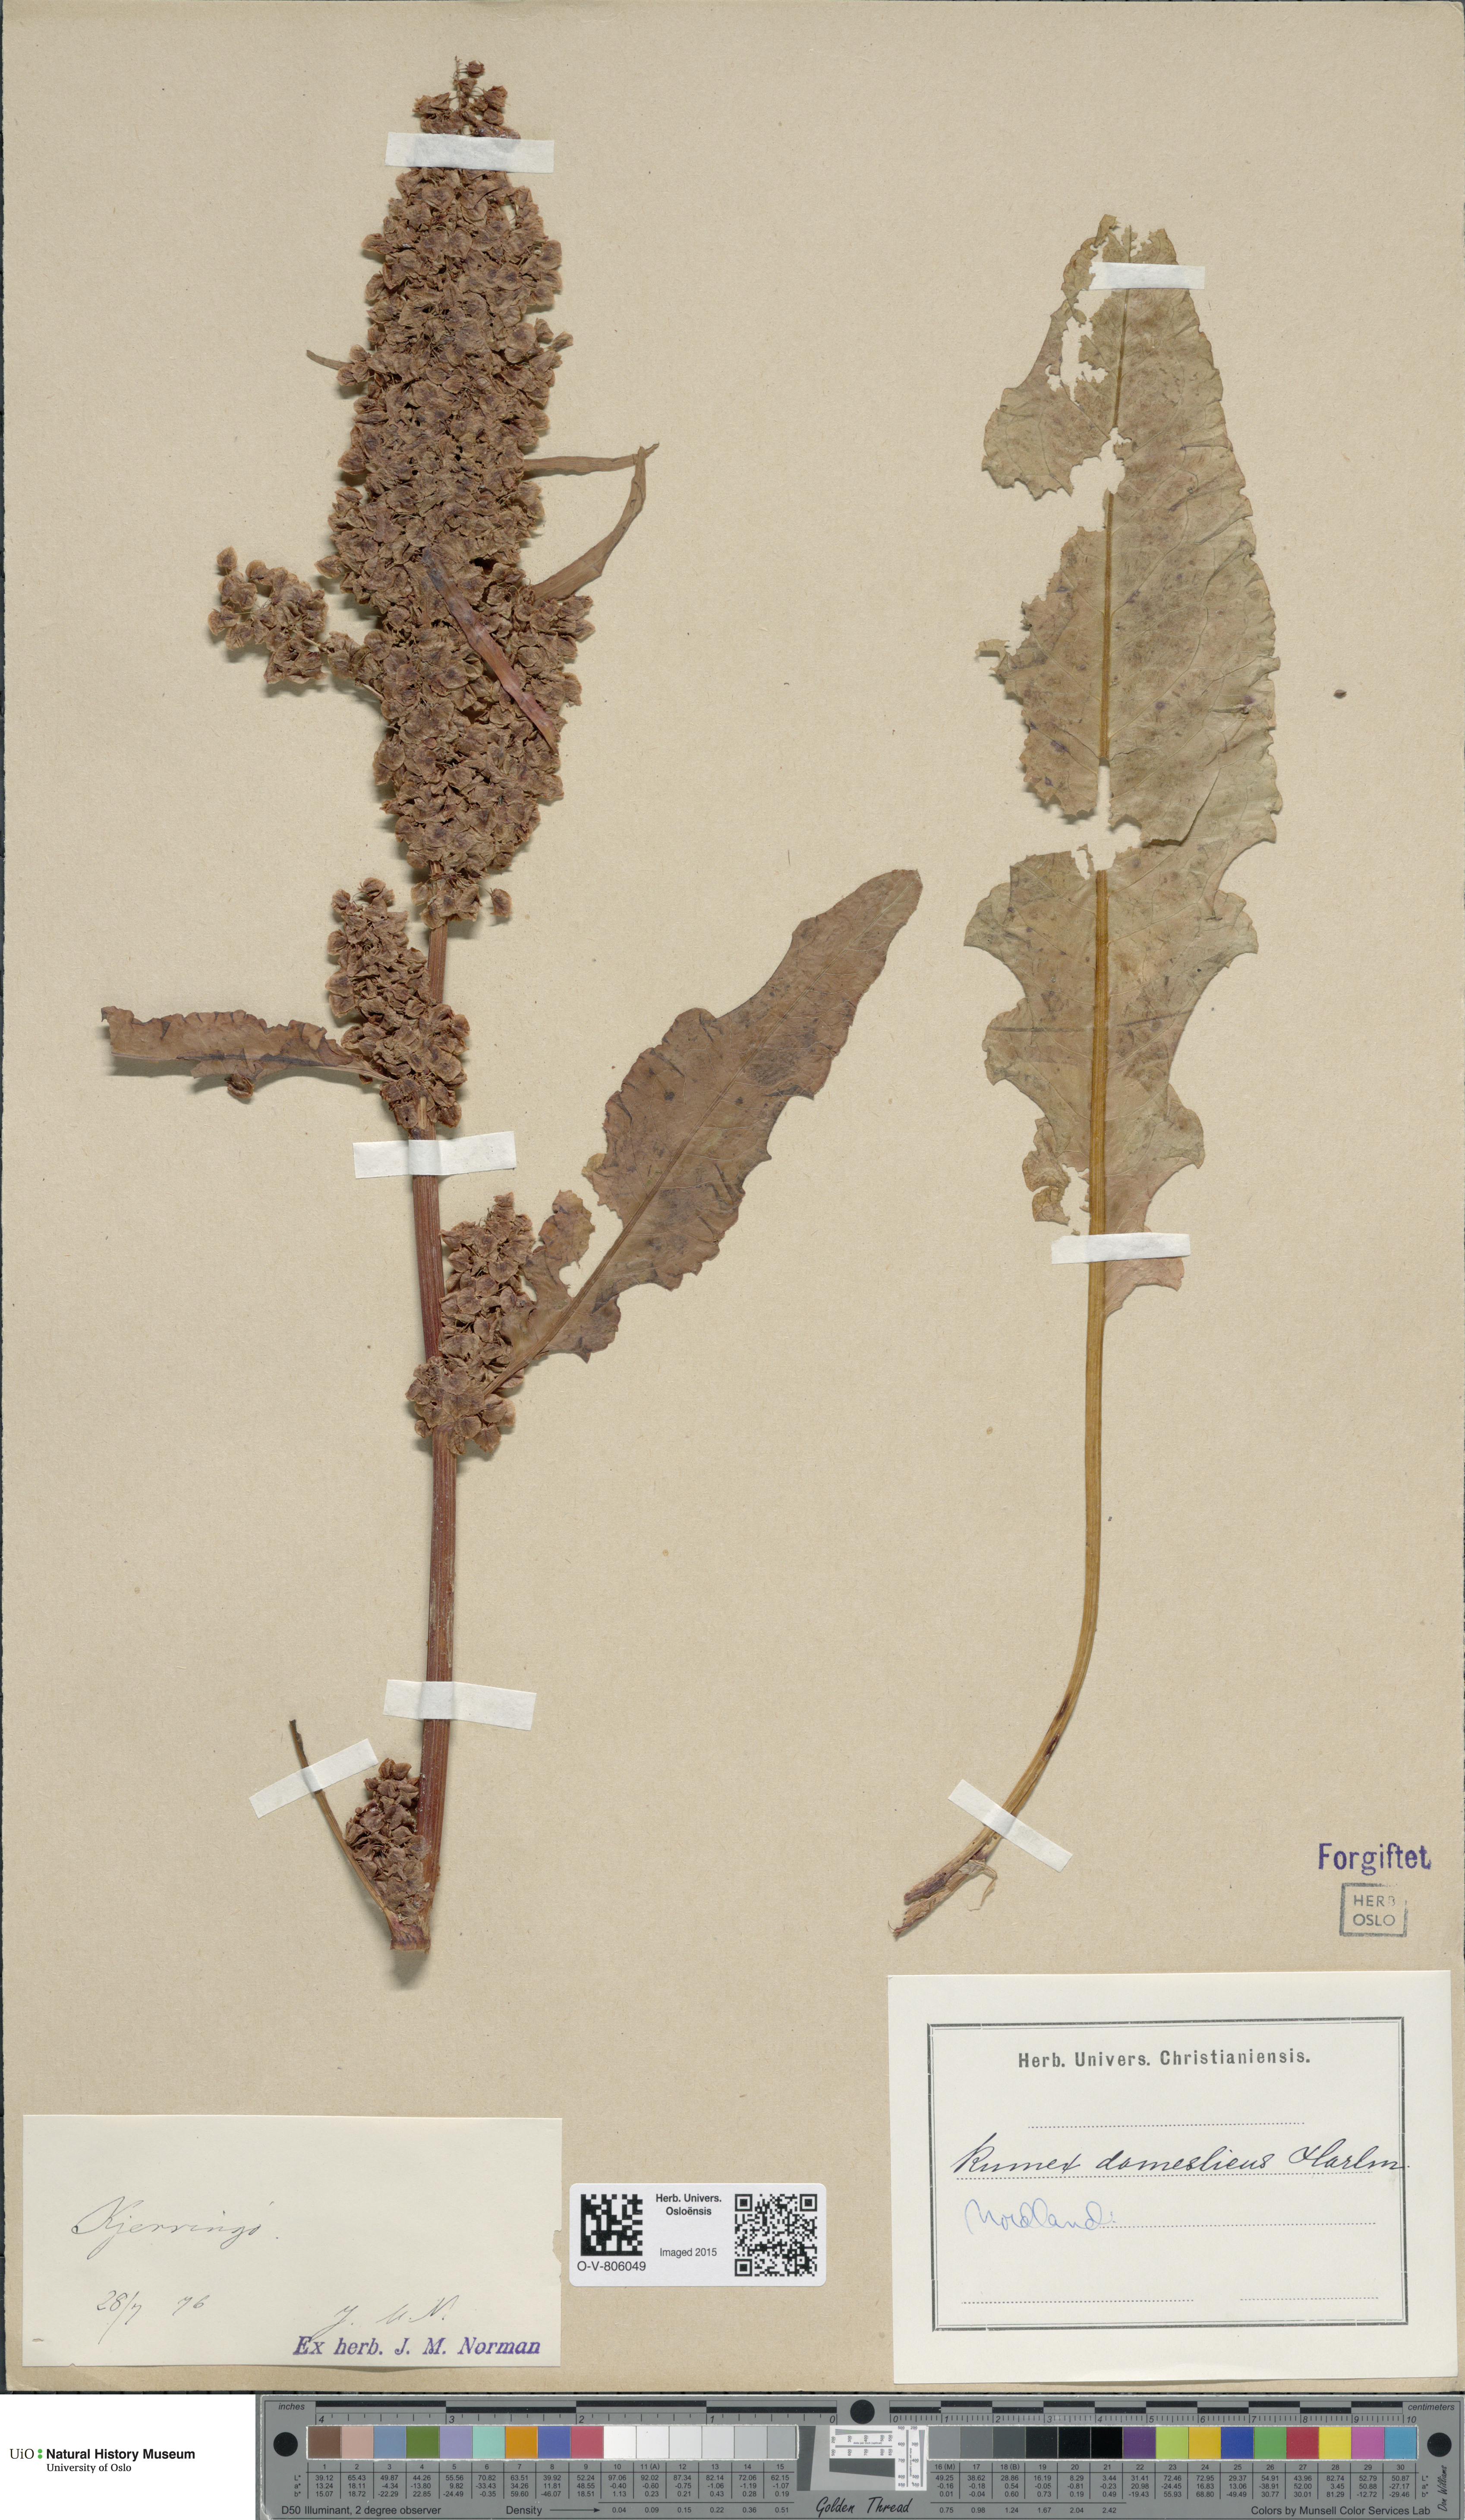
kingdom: Plantae
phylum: Tracheophyta
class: Magnoliopsida
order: Caryophyllales
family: Polygonaceae
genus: Rumex
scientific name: Rumex longifolius
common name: Dooryard dock
